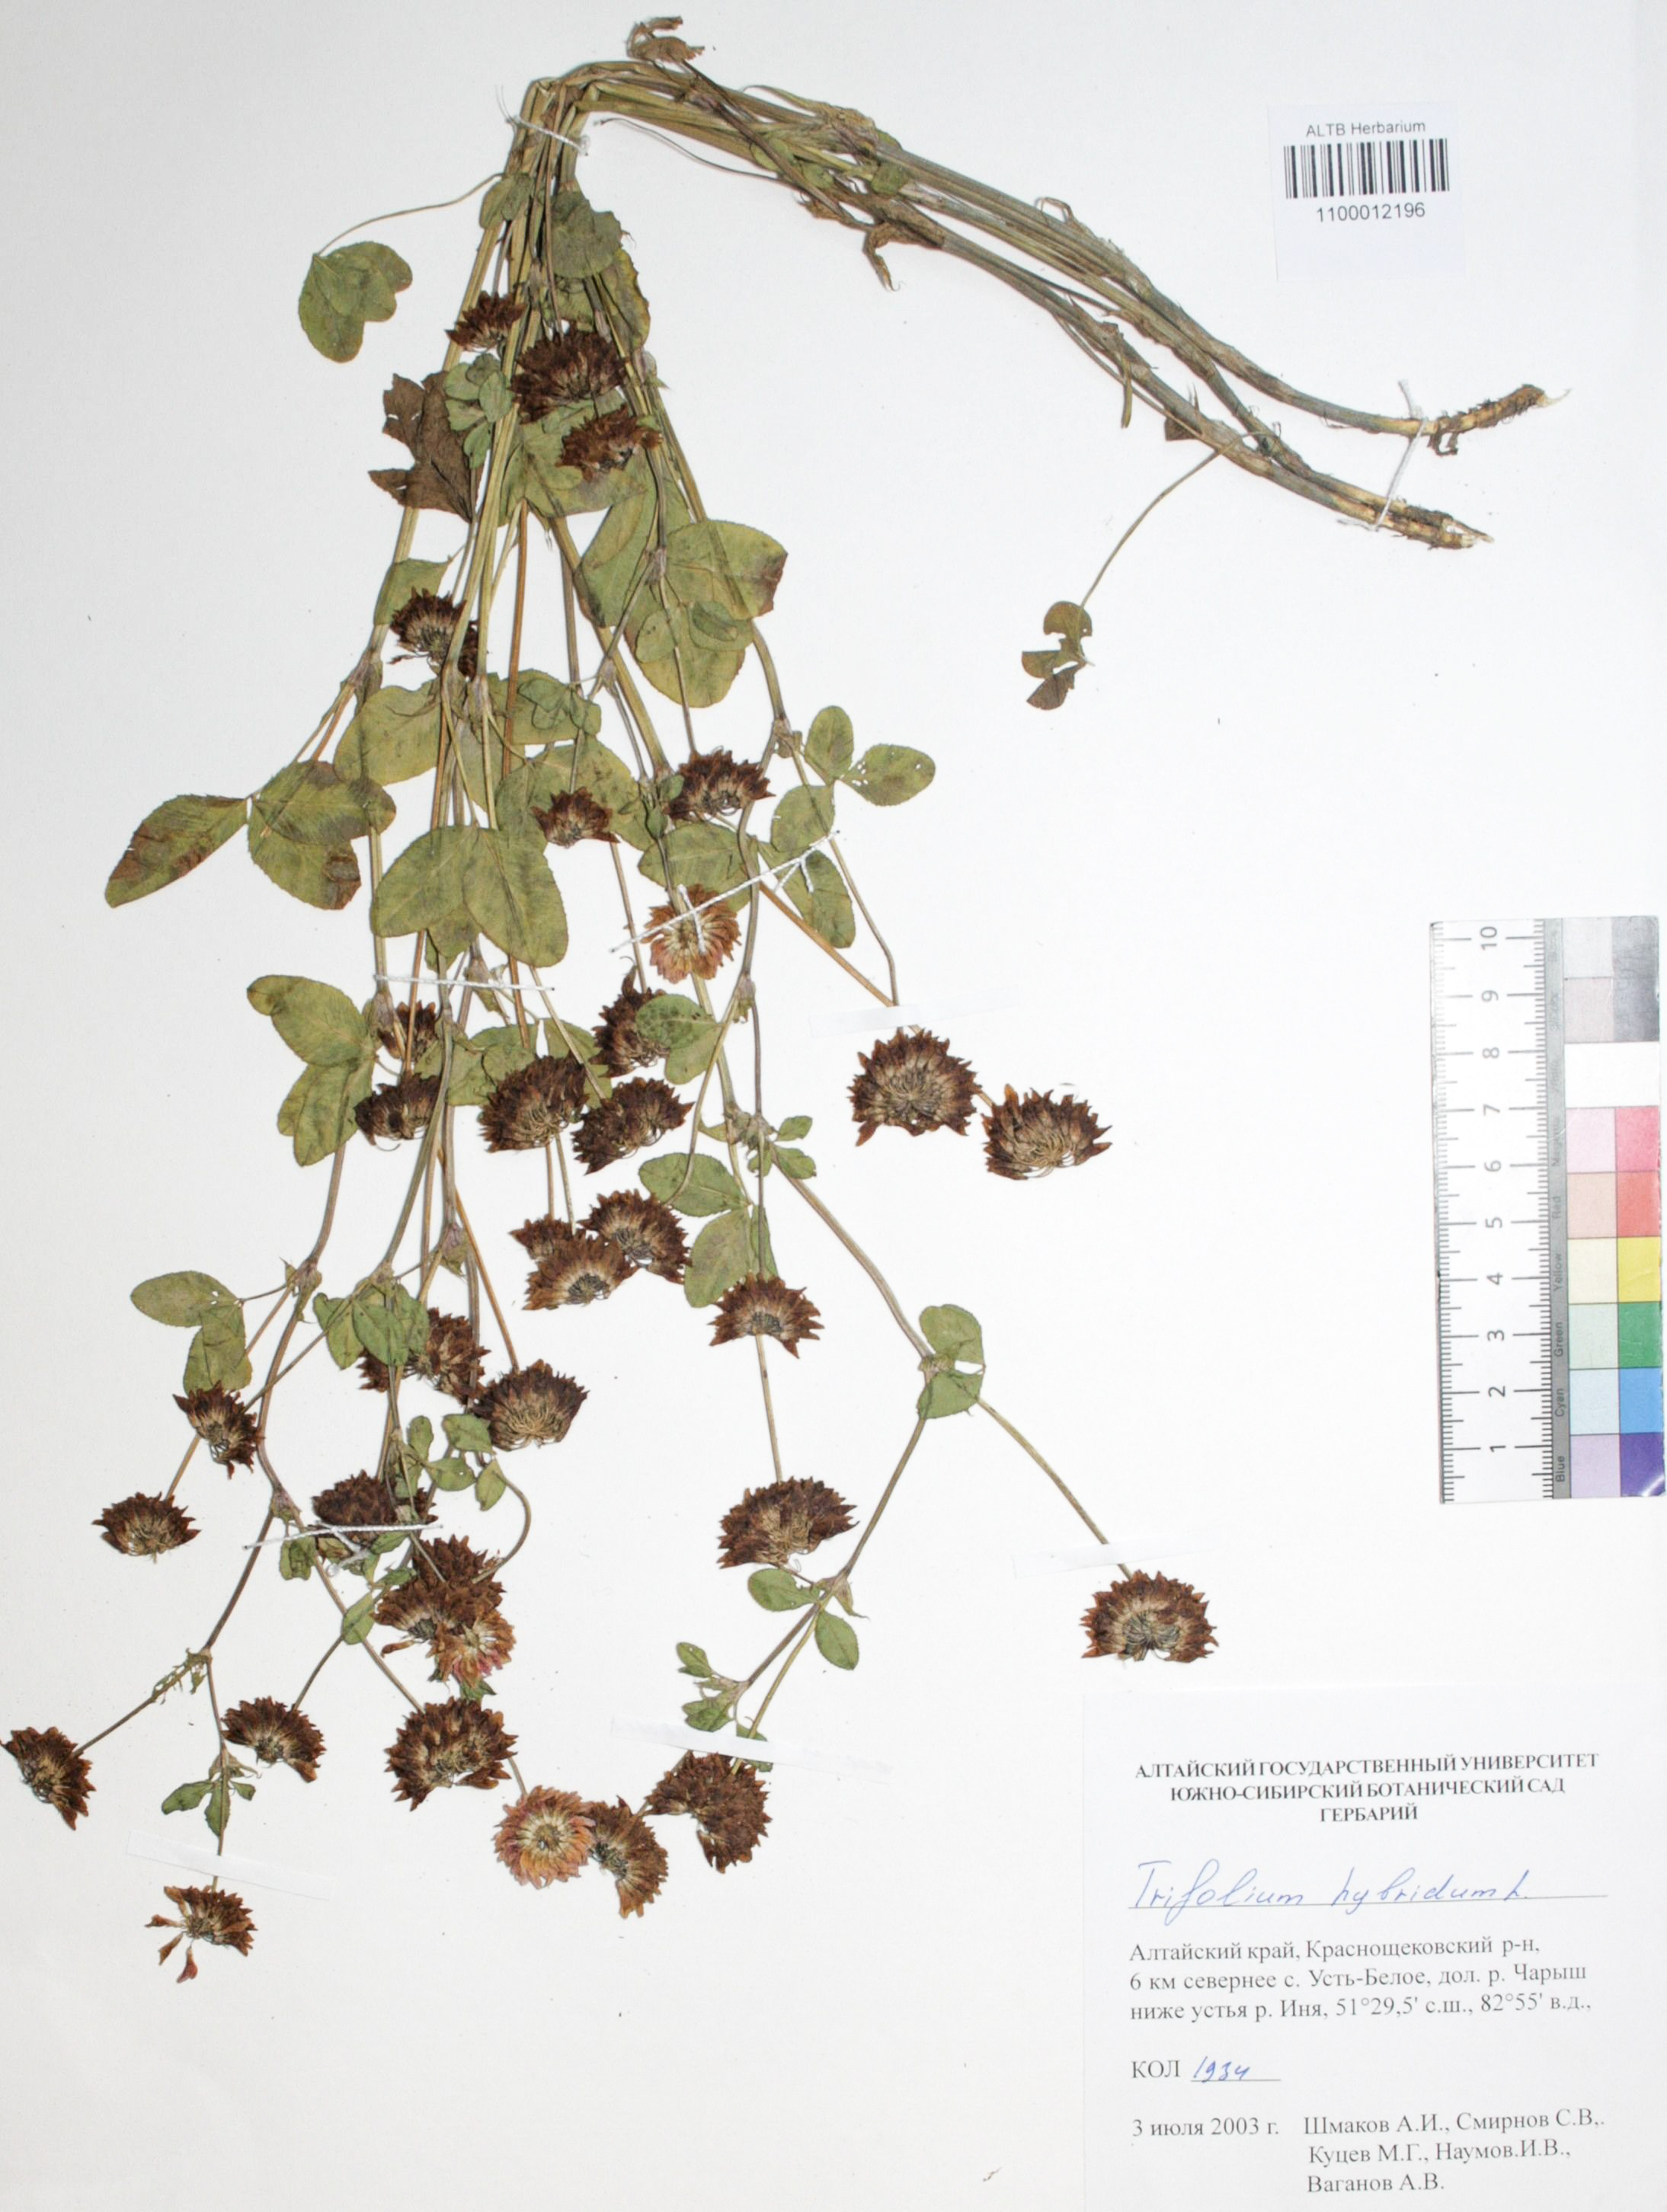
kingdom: Plantae
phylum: Tracheophyta
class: Magnoliopsida
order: Fabales
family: Fabaceae
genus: Trifolium
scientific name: Trifolium hybridum
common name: Alsike clover
